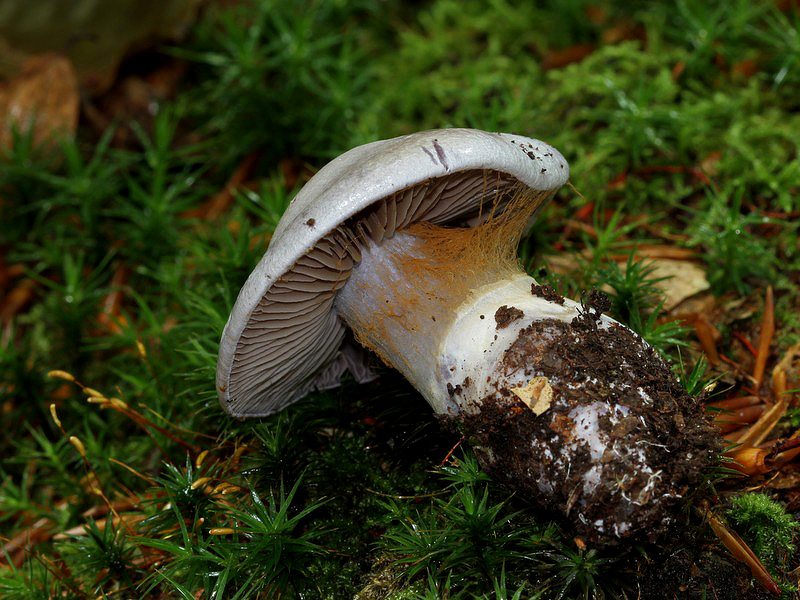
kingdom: Fungi
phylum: Basidiomycota
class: Agaricomycetes
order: Agaricales
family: Cortinariaceae
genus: Cortinarius
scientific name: Cortinarius alboviolaceus
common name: lysviolet slørhat
